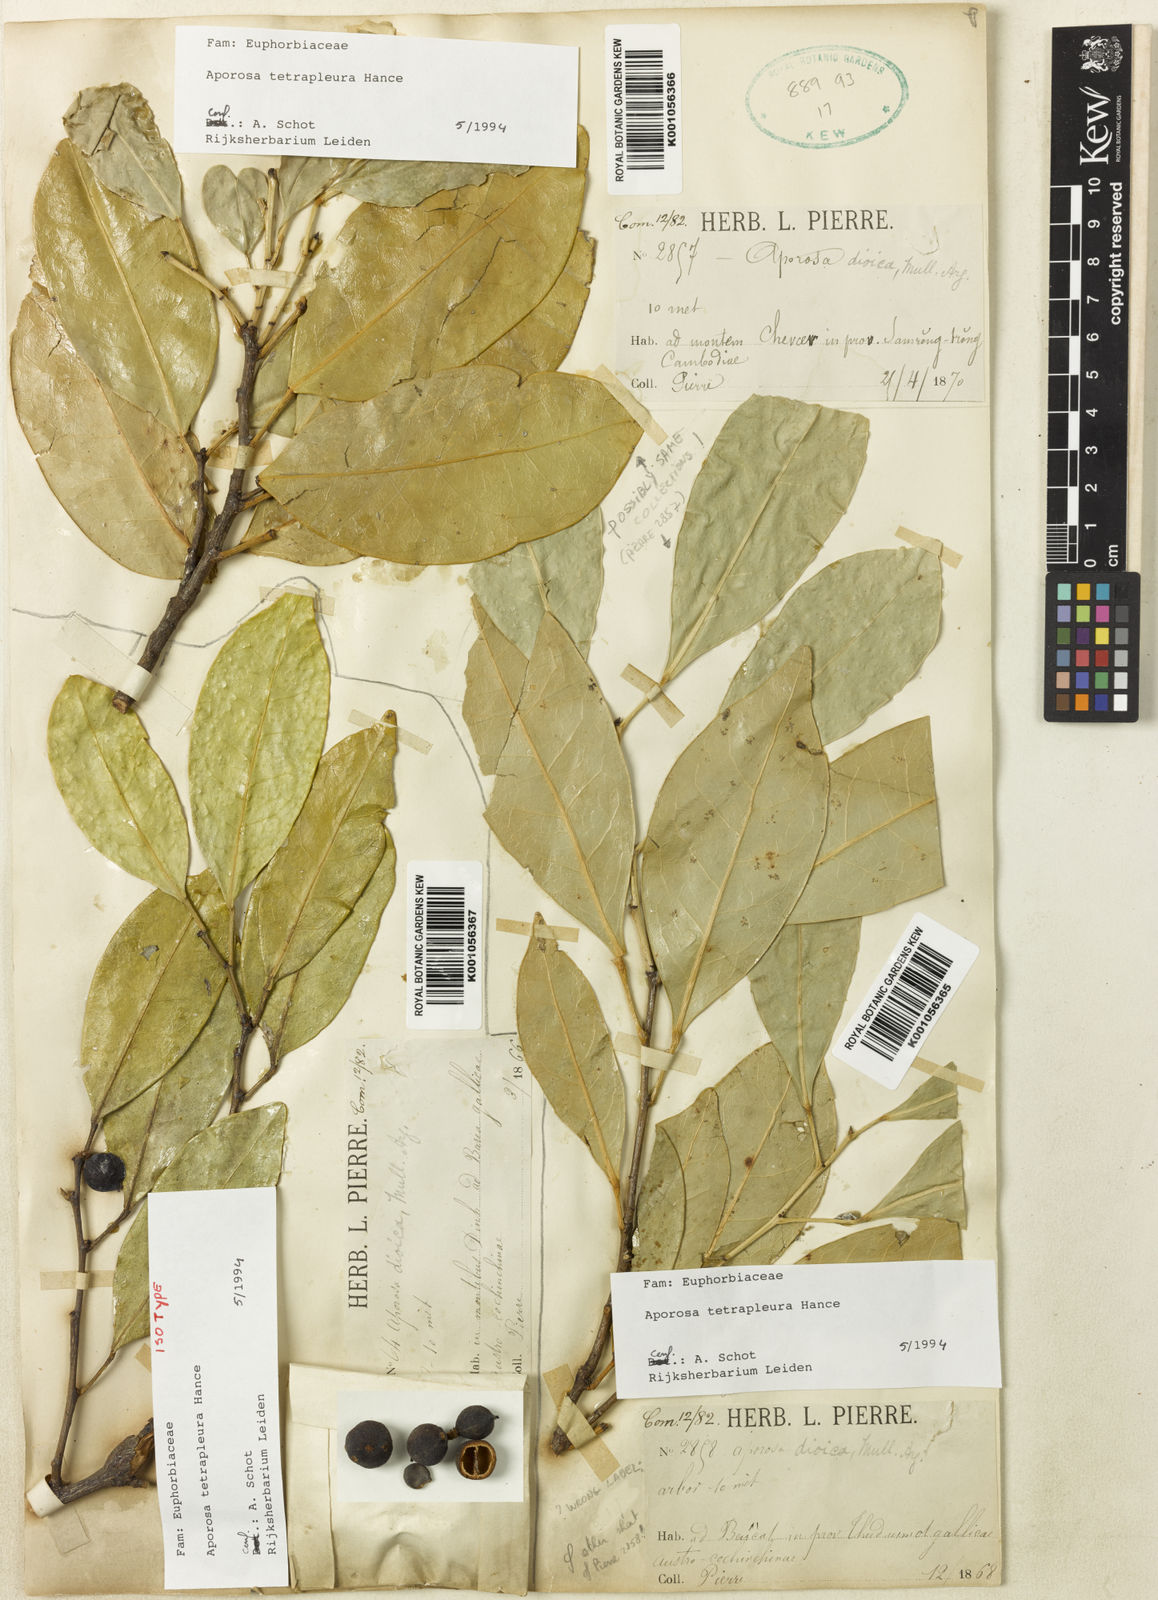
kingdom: Plantae
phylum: Tracheophyta
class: Magnoliopsida
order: Malpighiales
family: Phyllanthaceae
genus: Aporosa
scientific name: Aporosa tetrapleura
